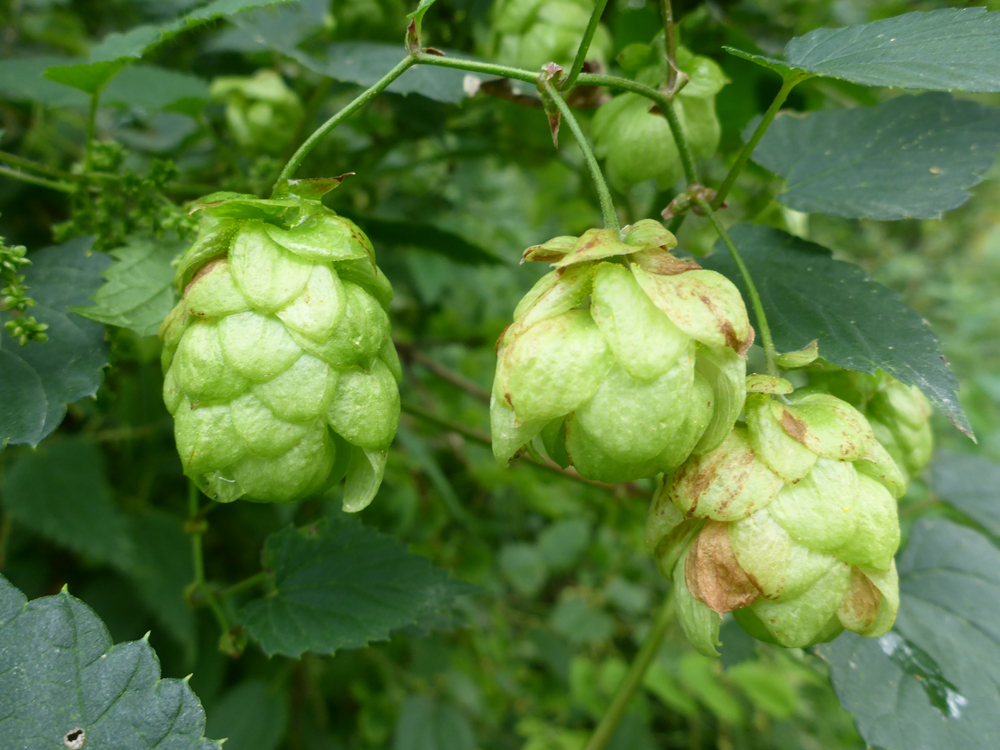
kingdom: Plantae
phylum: Tracheophyta
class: Magnoliopsida
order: Rosales
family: Cannabaceae
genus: Humulus
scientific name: Humulus lupulus
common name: Hop
